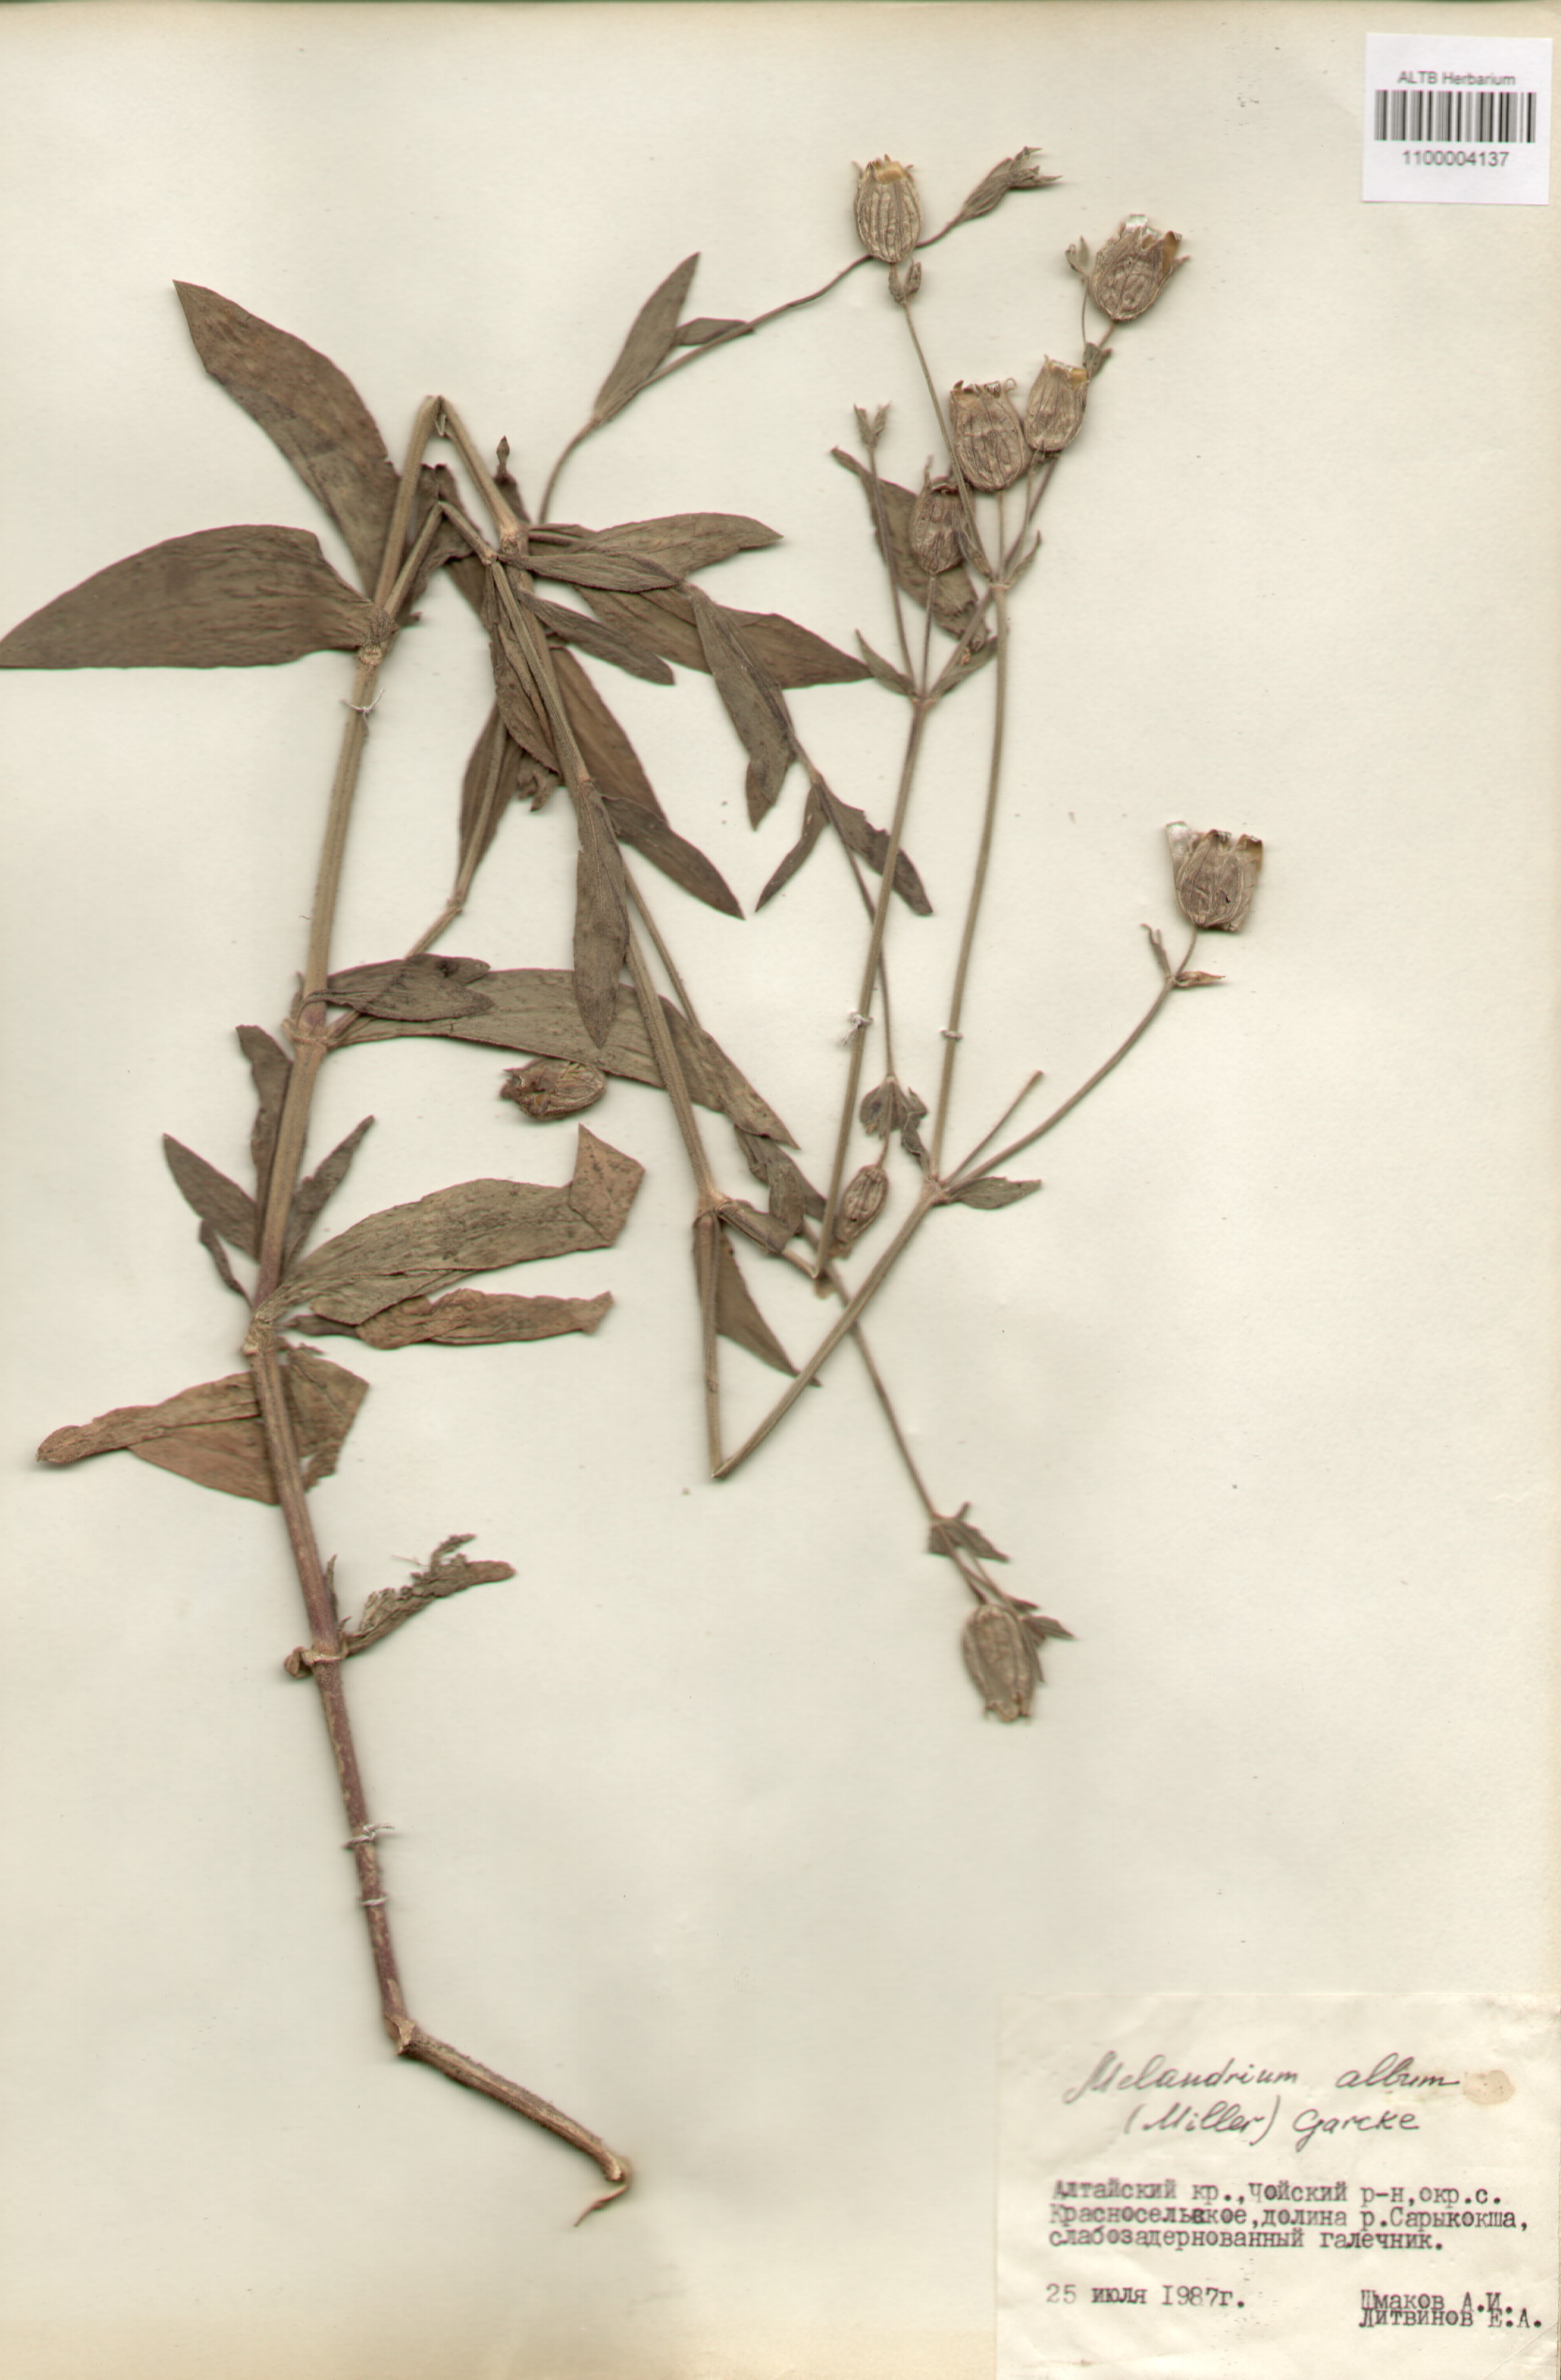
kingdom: Plantae
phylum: Tracheophyta
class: Magnoliopsida
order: Caryophyllales
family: Caryophyllaceae
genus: Silene
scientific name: Silene latifolia
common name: White campion
